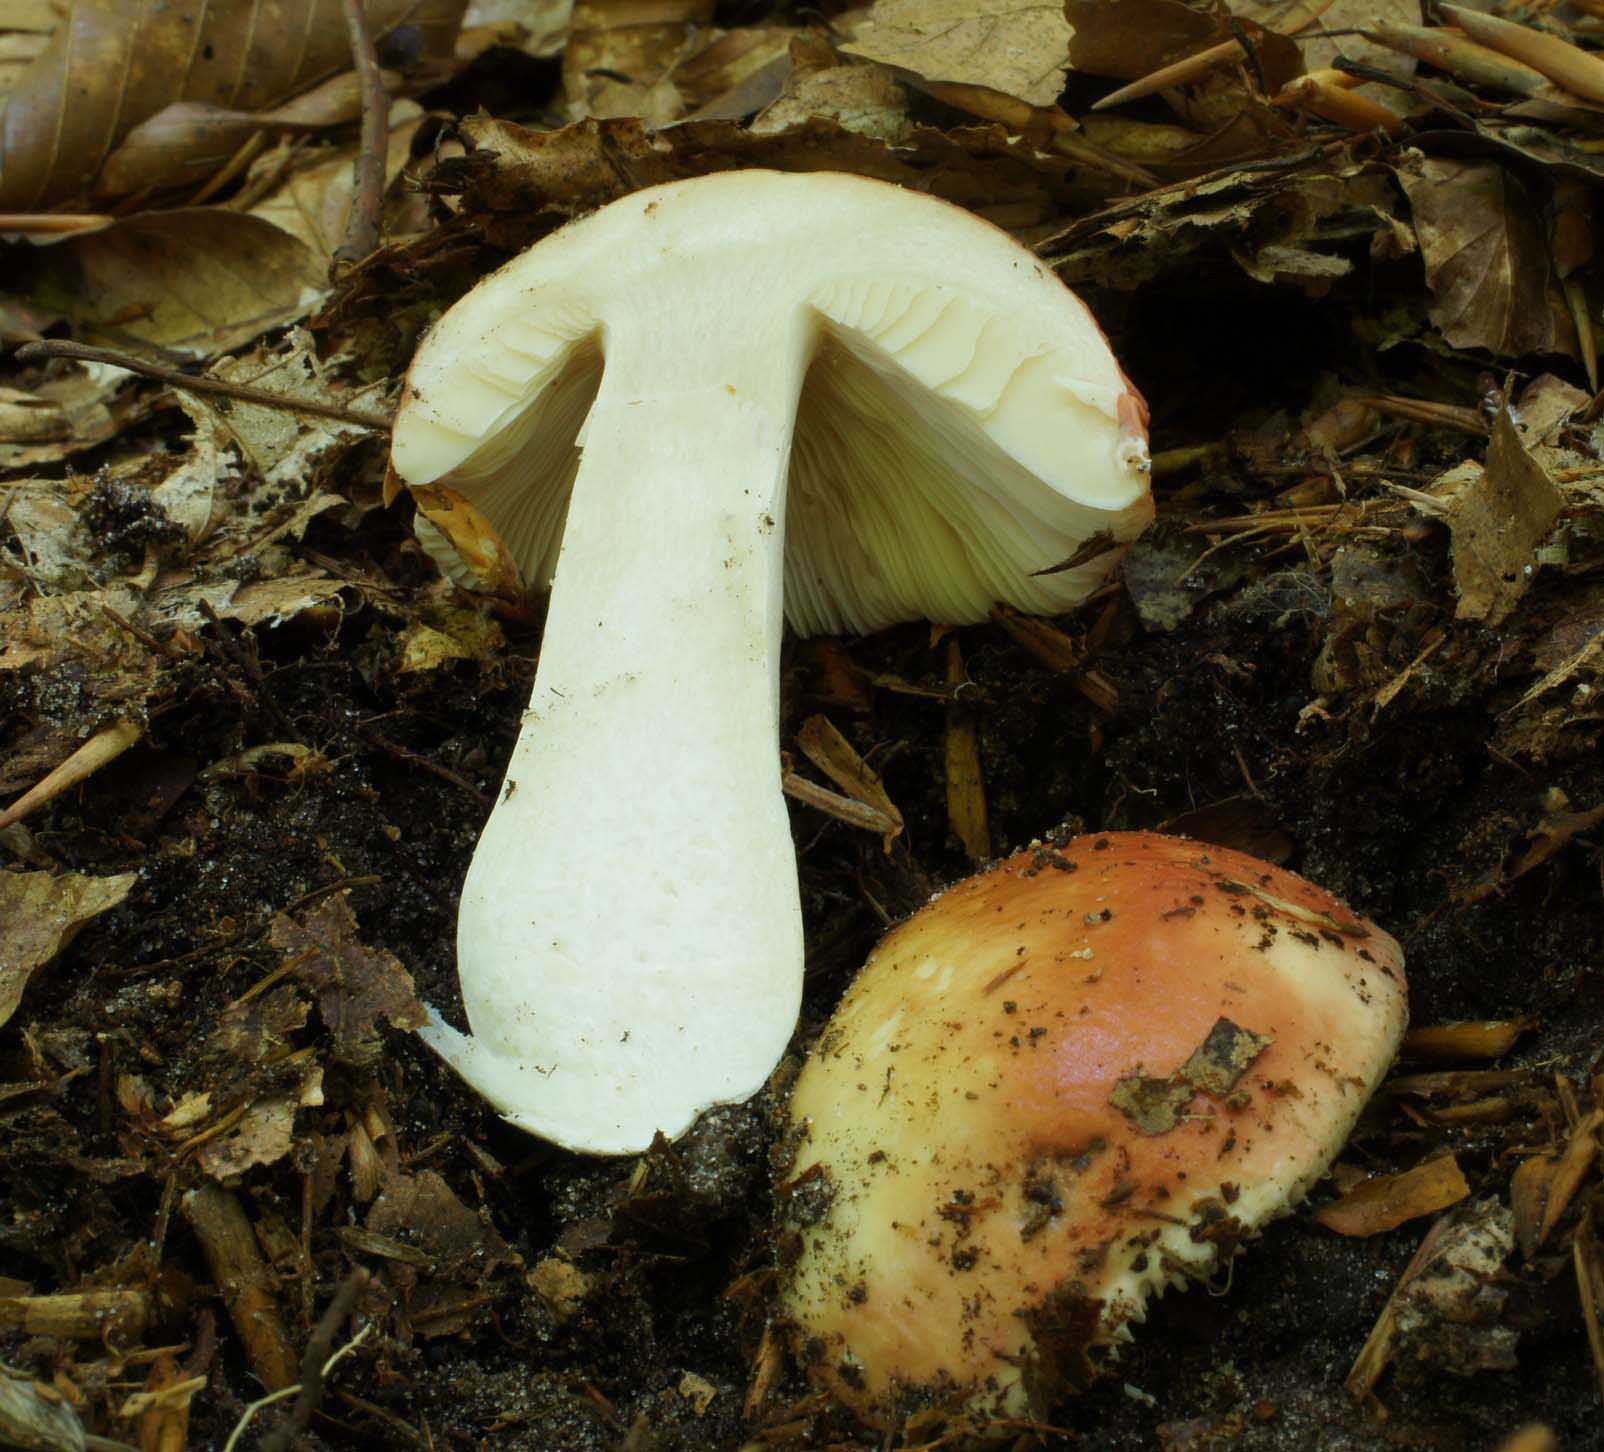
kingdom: Fungi
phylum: Basidiomycota
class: Agaricomycetes
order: Russulales
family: Russulaceae
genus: Russula
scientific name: Russula aurora
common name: rosa skørhat
